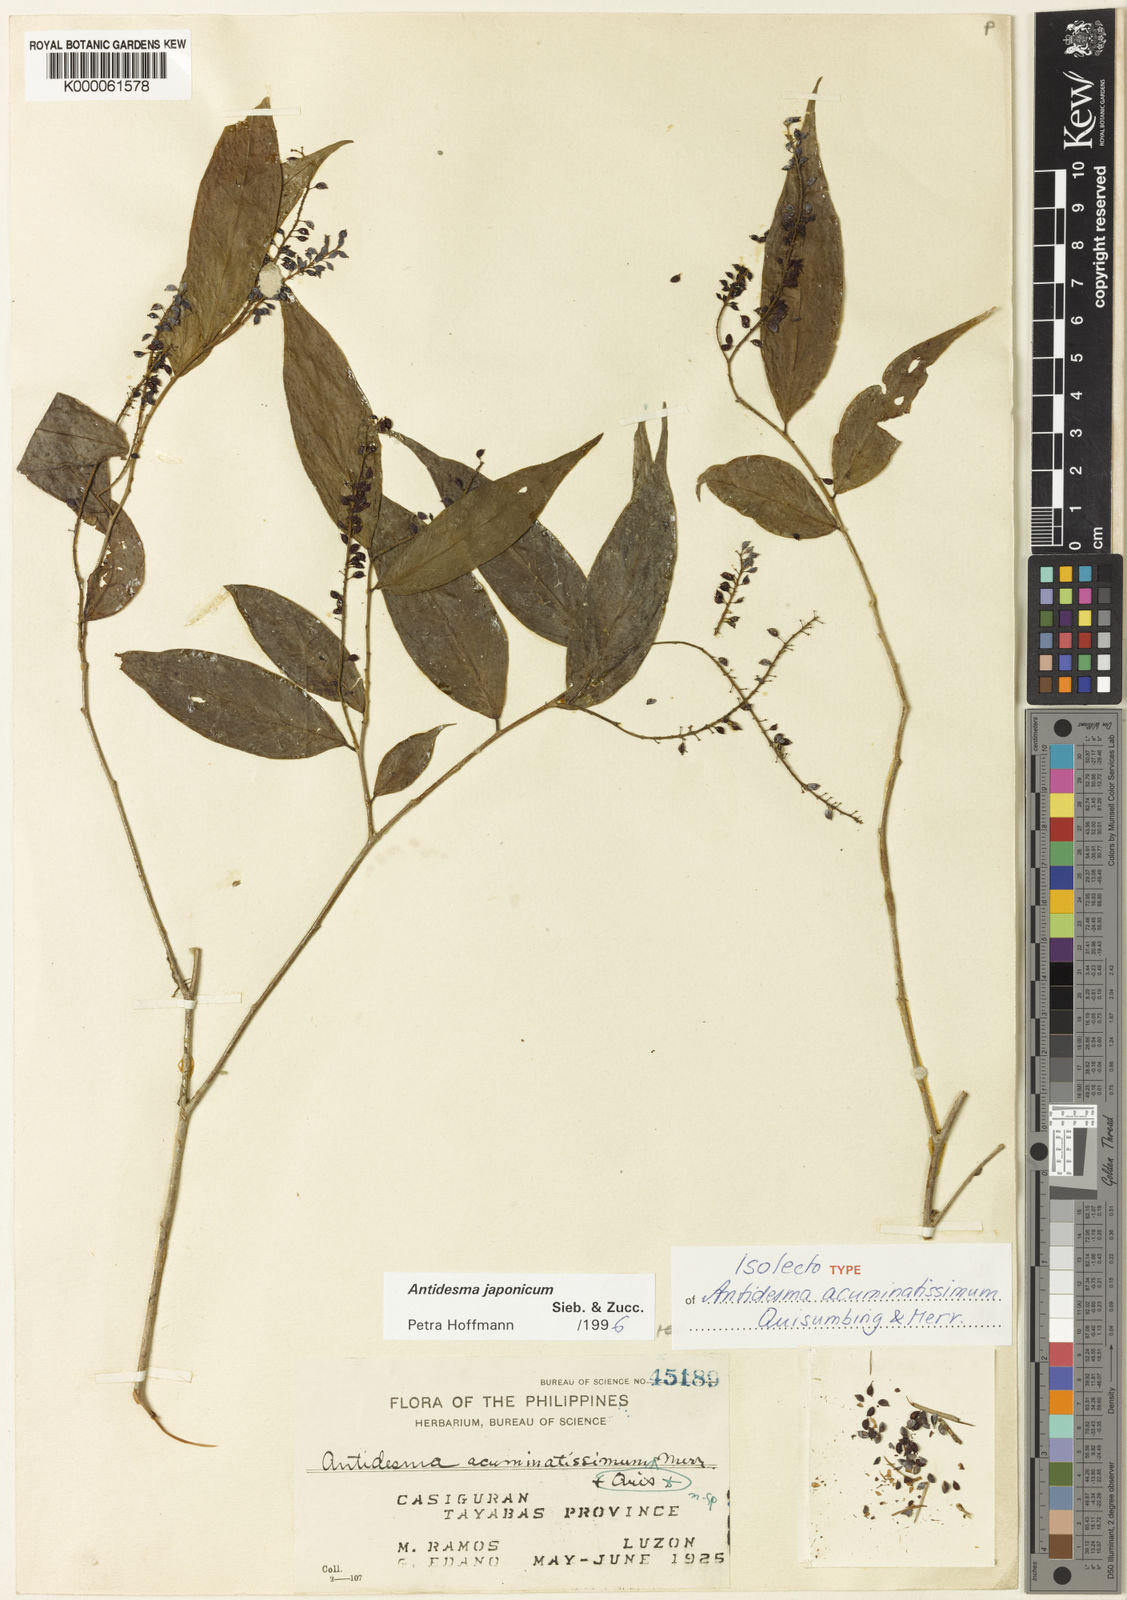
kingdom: Plantae
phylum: Tracheophyta
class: Magnoliopsida
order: Malpighiales
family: Phyllanthaceae
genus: Antidesma
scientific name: Antidesma japonicum
